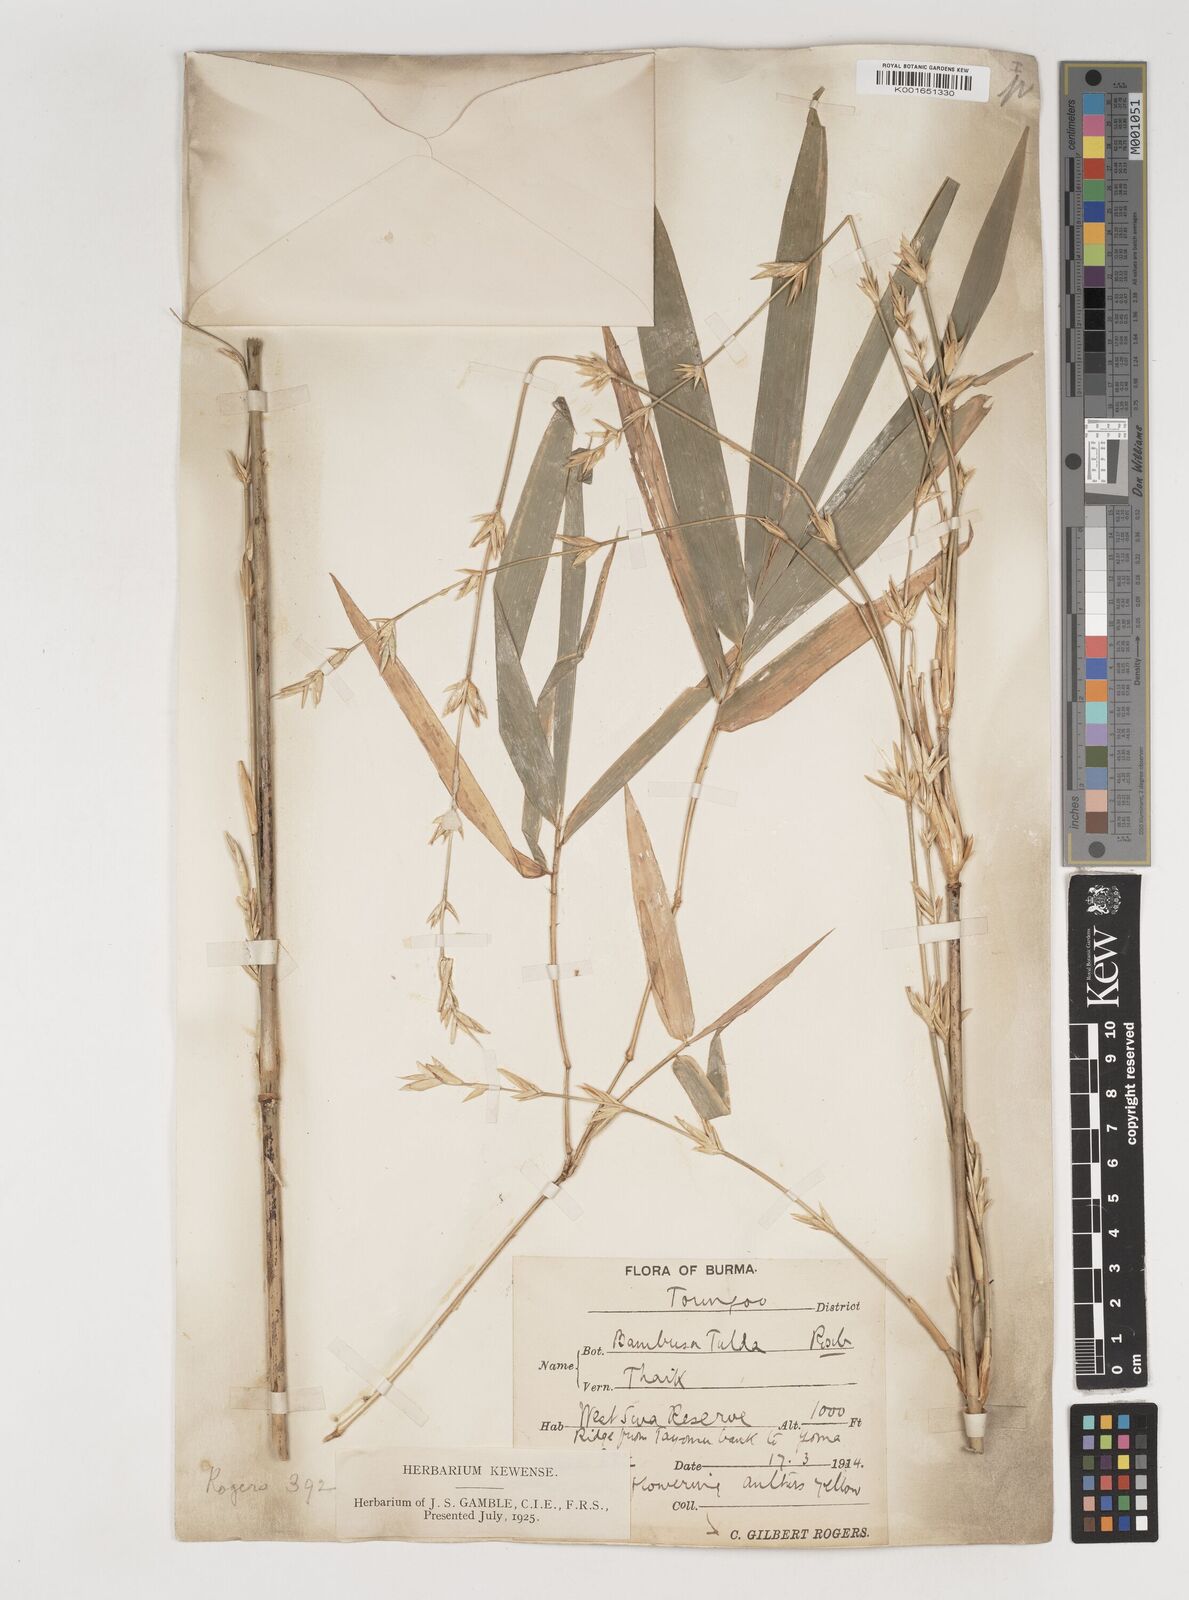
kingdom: Plantae
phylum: Tracheophyta
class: Liliopsida
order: Poales
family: Poaceae
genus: Bambusa
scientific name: Bambusa tulda
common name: Bengal bamboo
